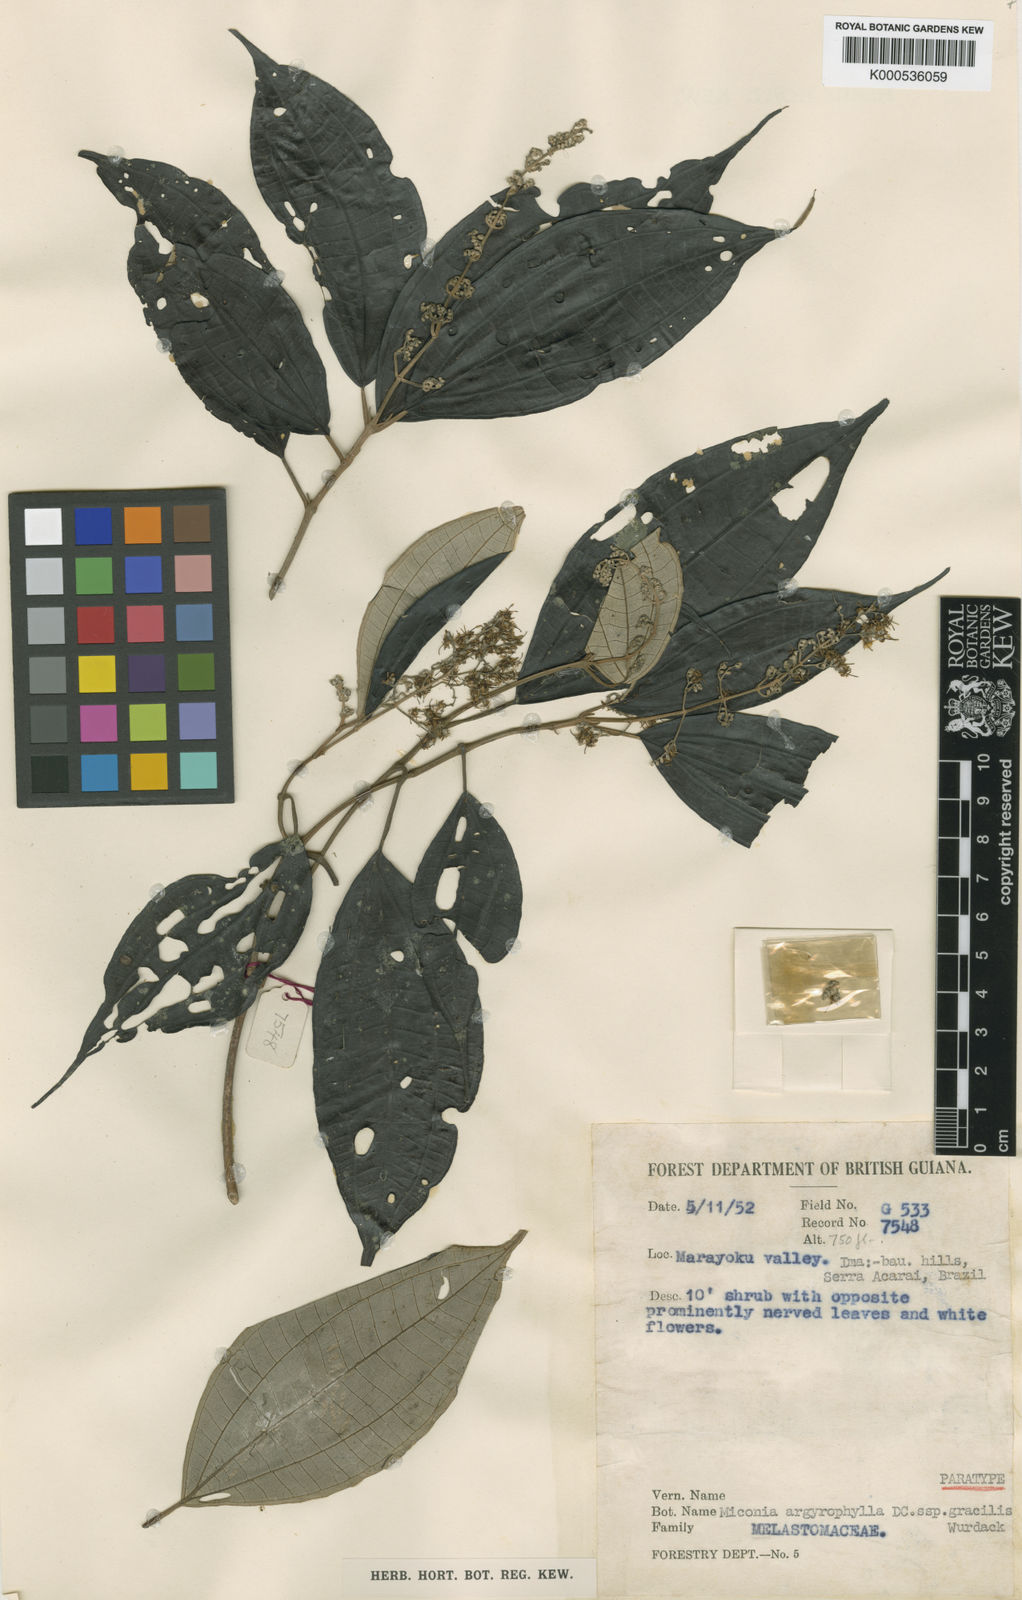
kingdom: Plantae
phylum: Tracheophyta
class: Magnoliopsida
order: Myrtales
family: Melastomataceae
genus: Miconia
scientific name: Miconia argyrophylla
